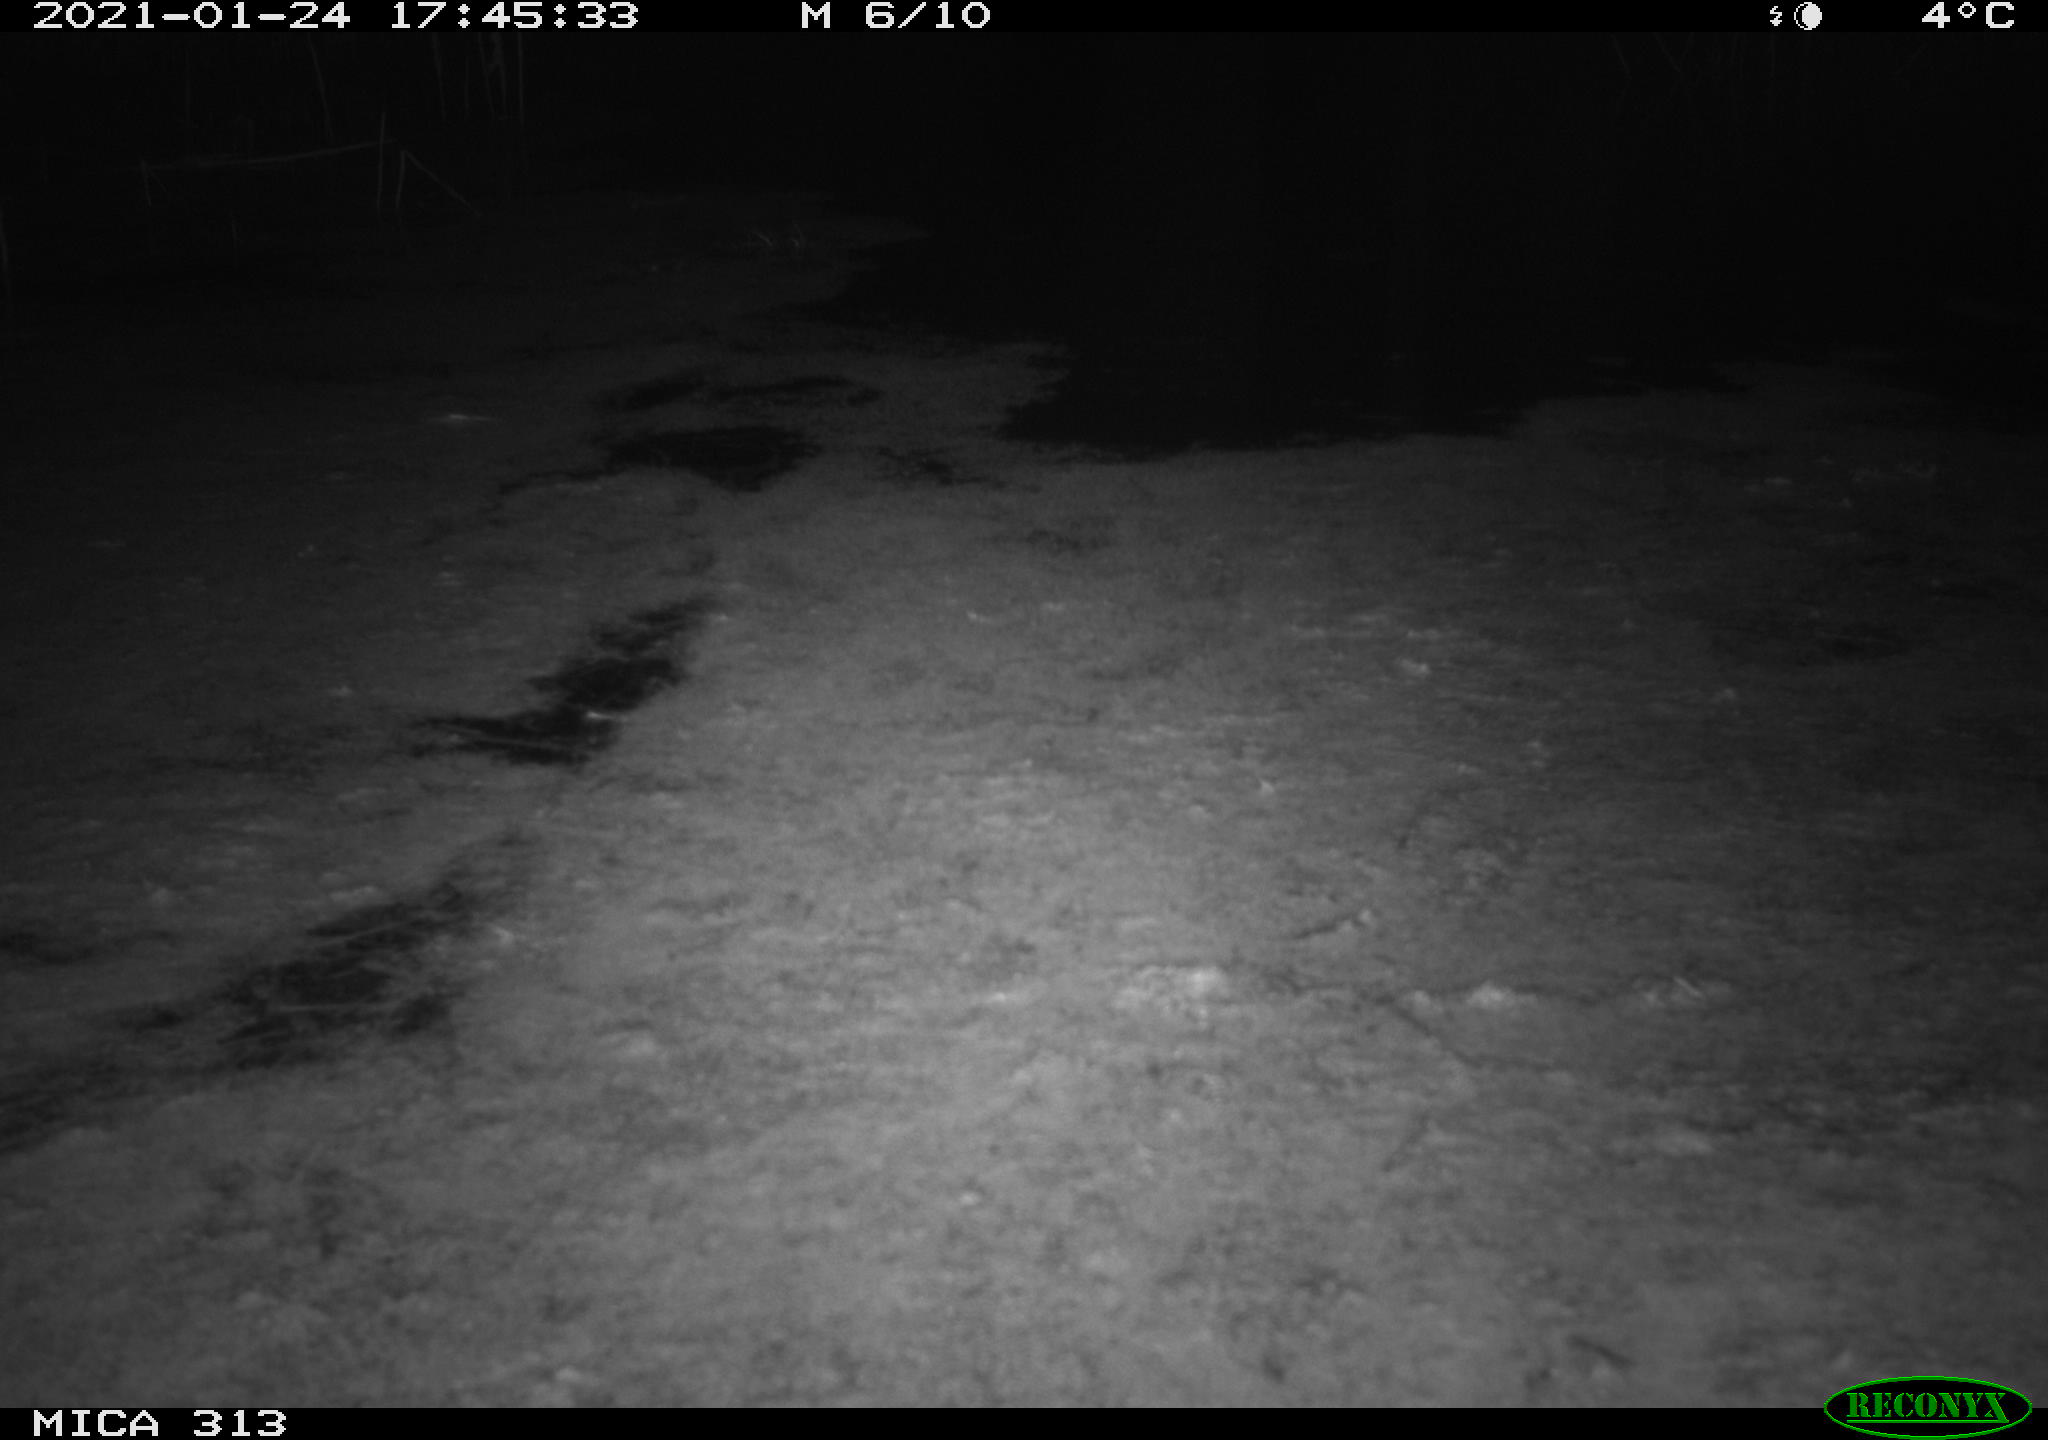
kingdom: Animalia
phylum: Chordata
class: Aves
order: Gruiformes
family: Rallidae
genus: Gallinula
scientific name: Gallinula chloropus
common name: Common moorhen
